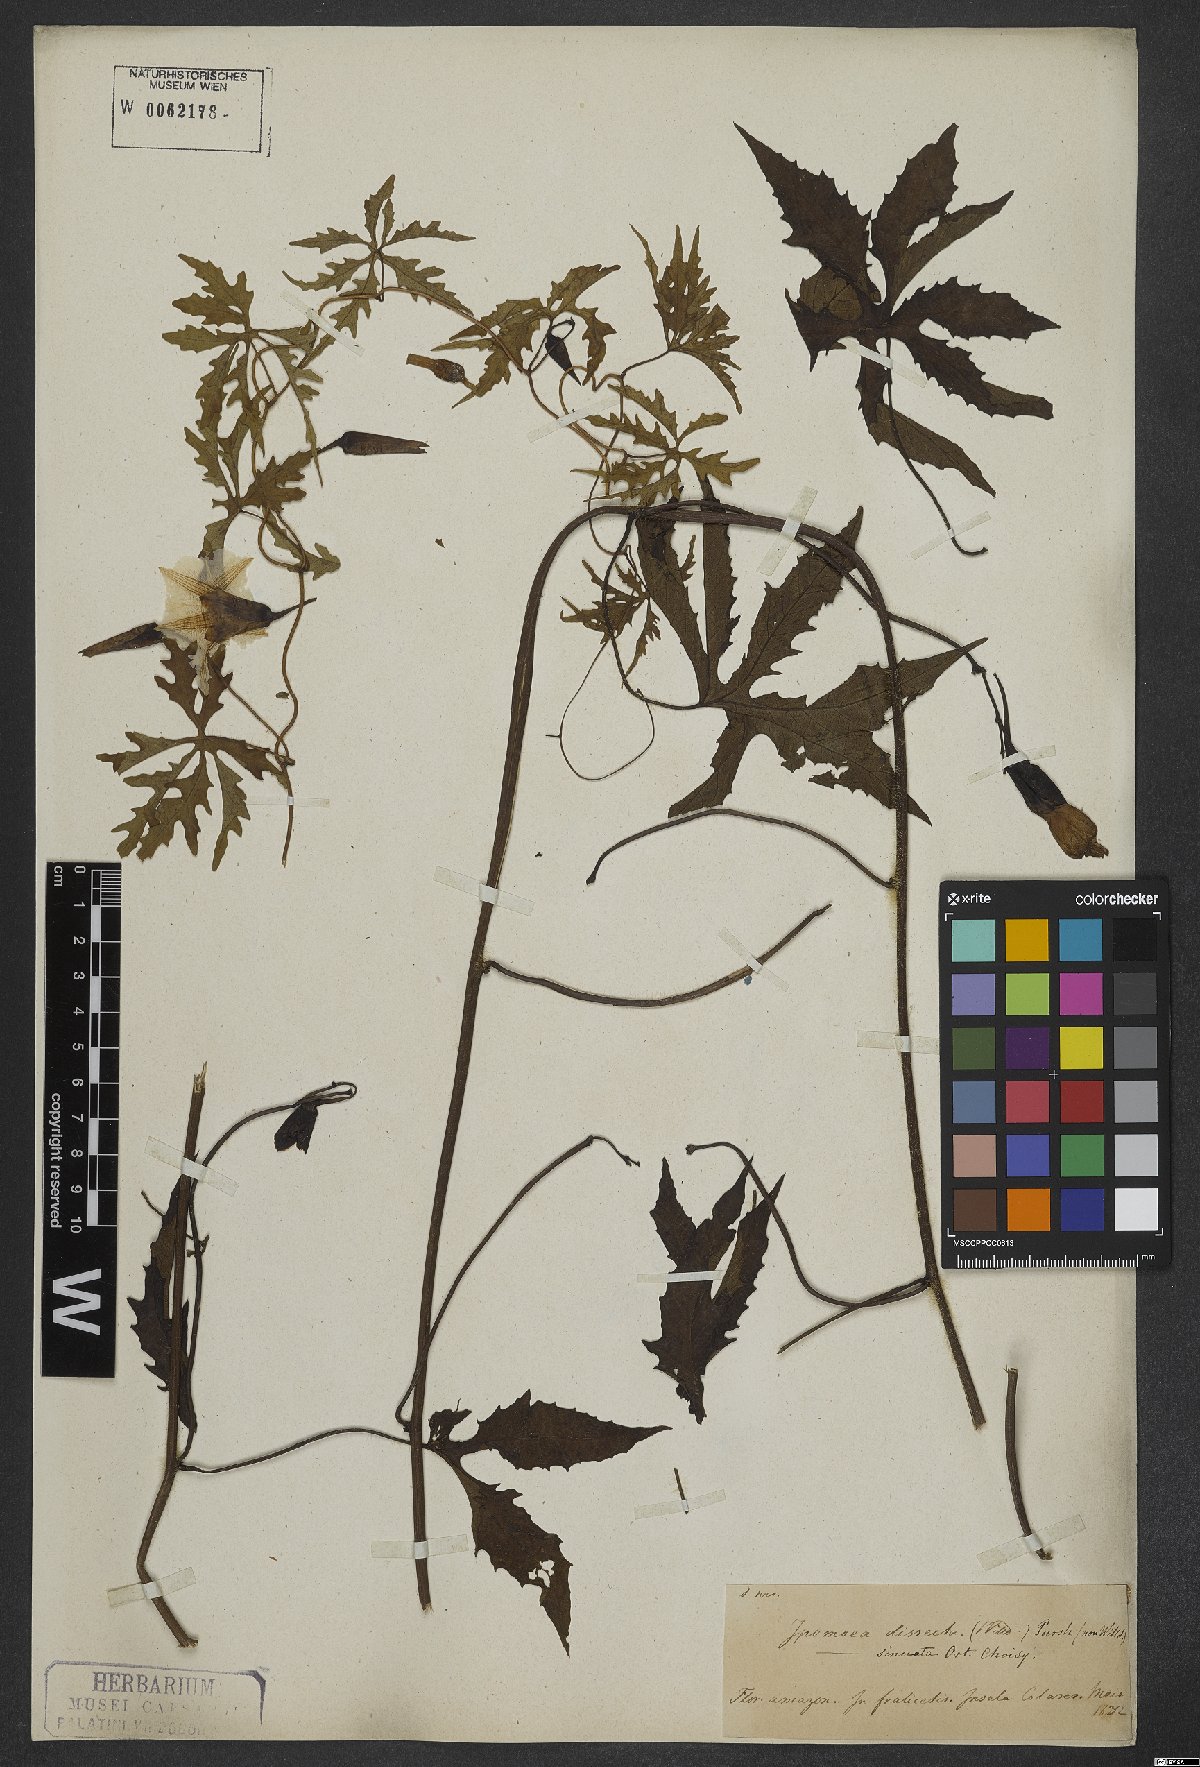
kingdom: Plantae
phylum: Tracheophyta
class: Magnoliopsida
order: Solanales
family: Convolvulaceae
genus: Distimake
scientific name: Distimake dissectus
